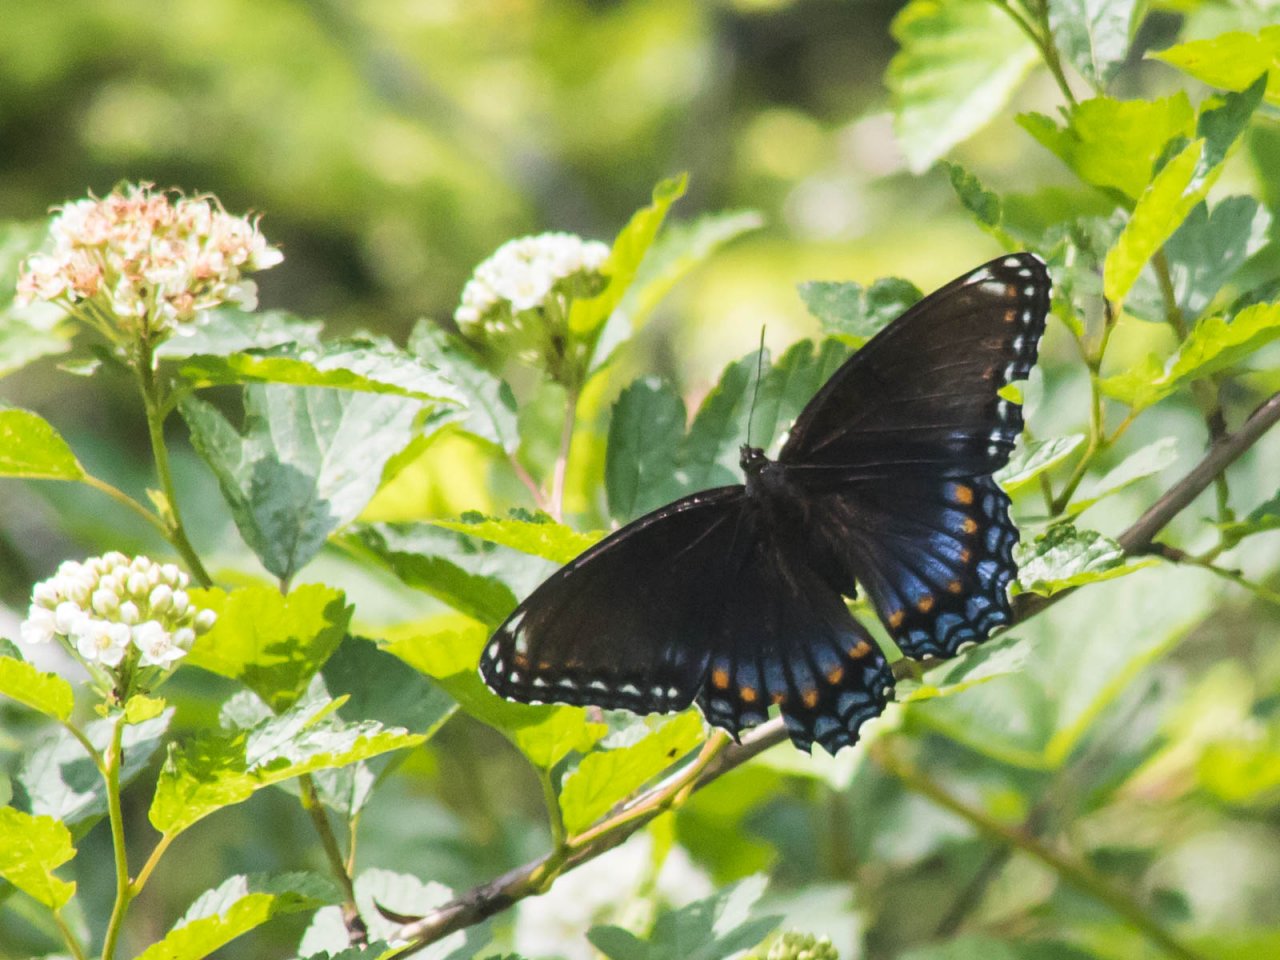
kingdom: Animalia
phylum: Arthropoda
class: Insecta
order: Lepidoptera
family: Nymphalidae
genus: Limenitis
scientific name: Limenitis astyanax
